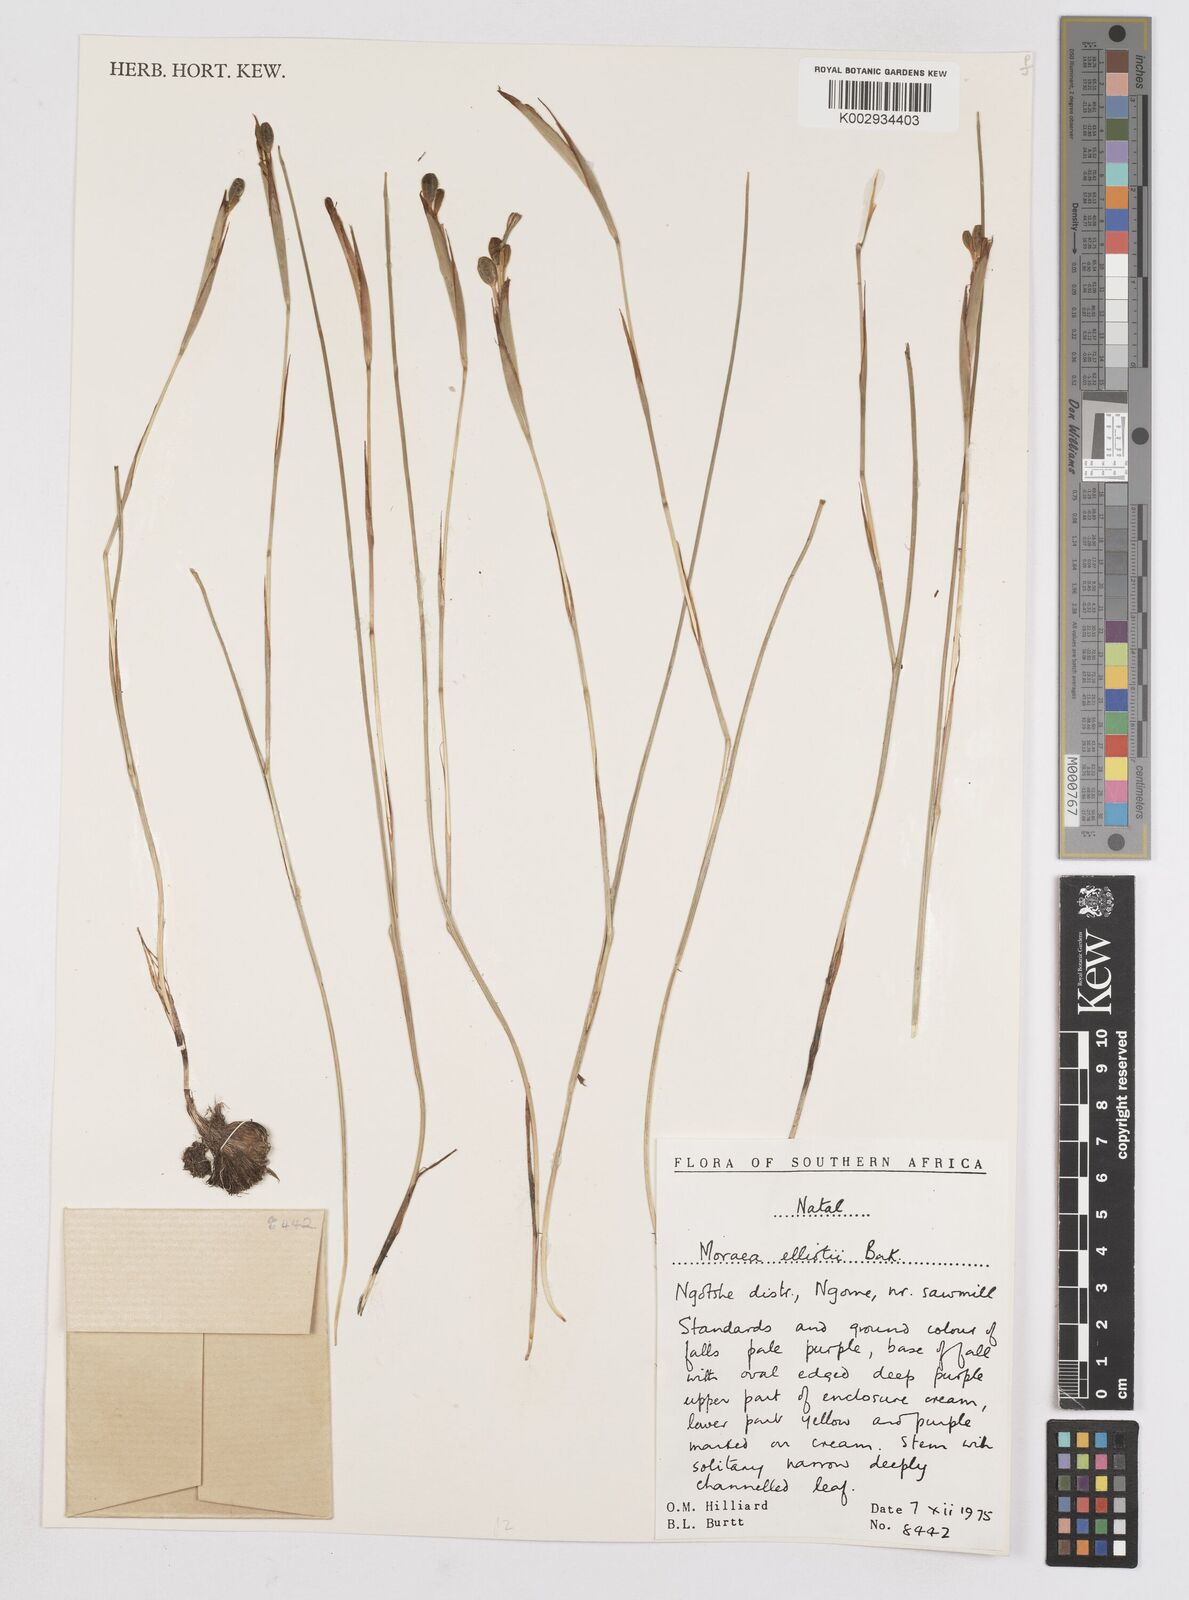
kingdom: Plantae
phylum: Tracheophyta
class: Liliopsida
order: Asparagales
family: Iridaceae
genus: Moraea
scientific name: Moraea elliotii
